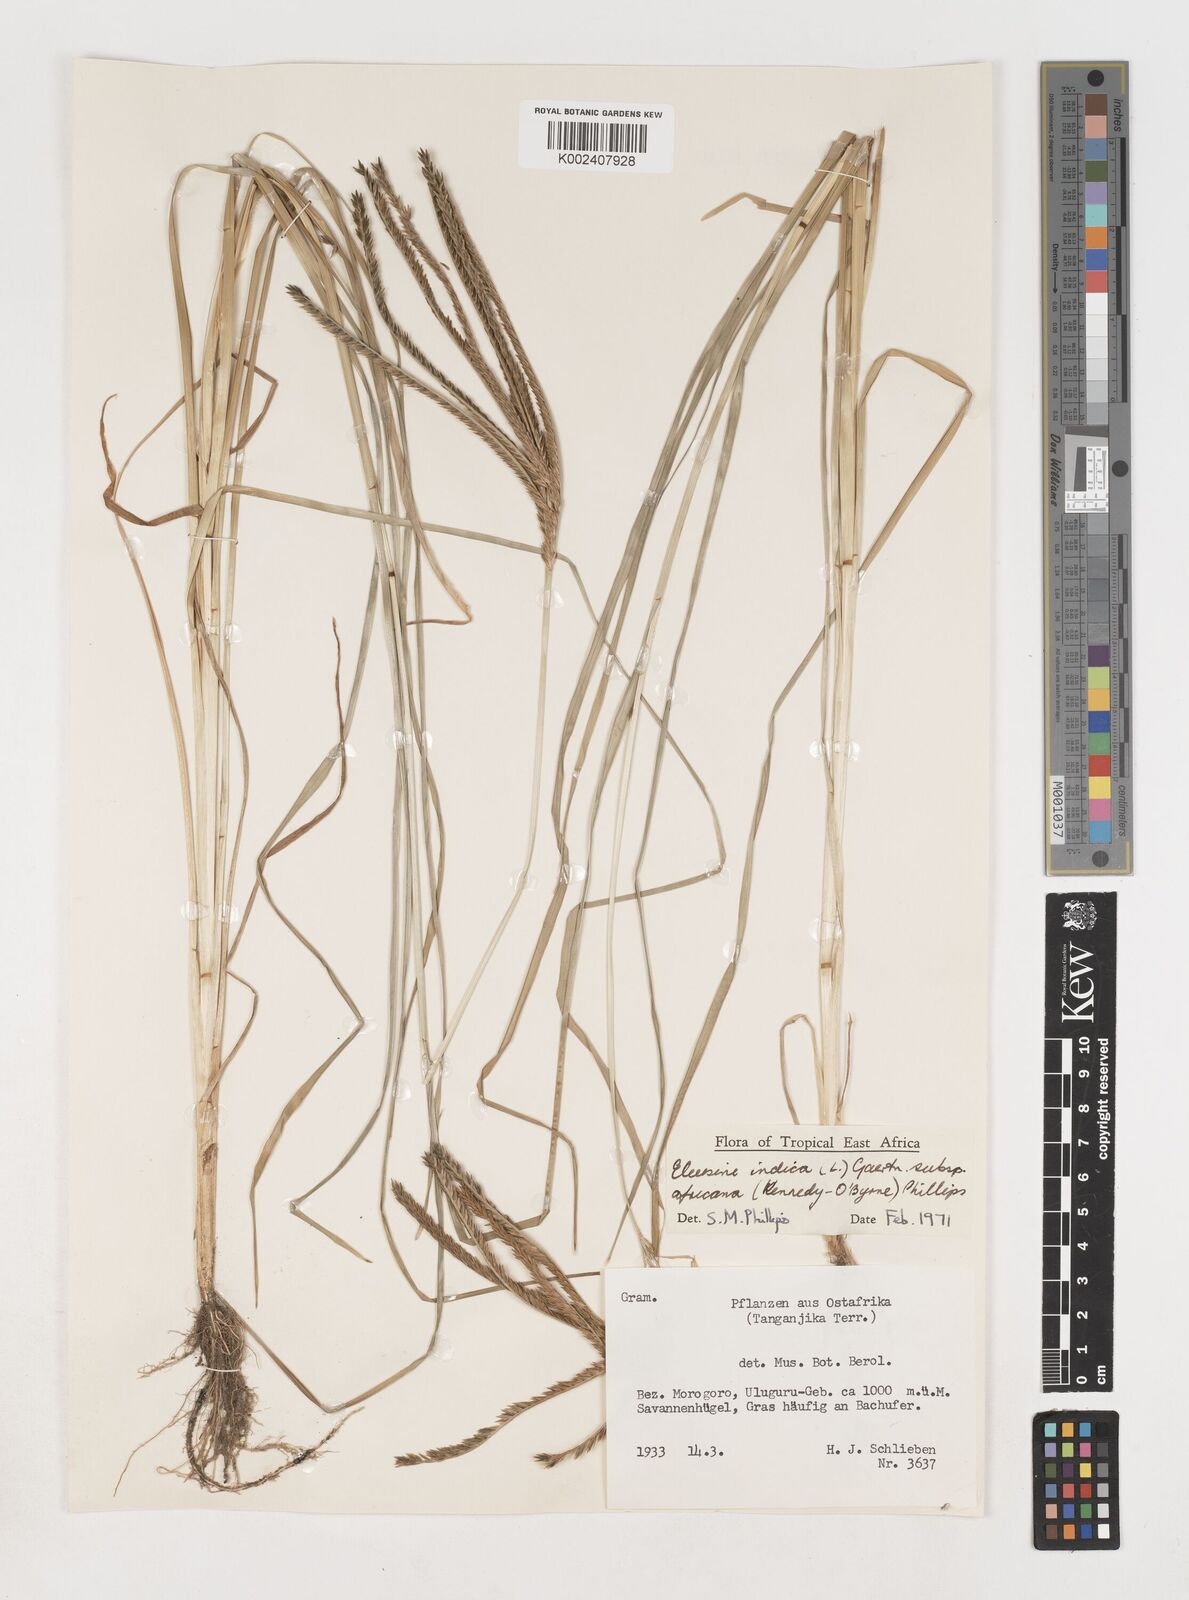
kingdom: Plantae
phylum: Tracheophyta
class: Liliopsida
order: Poales
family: Poaceae
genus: Eleusine
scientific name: Eleusine africana
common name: Wild african finger millet
